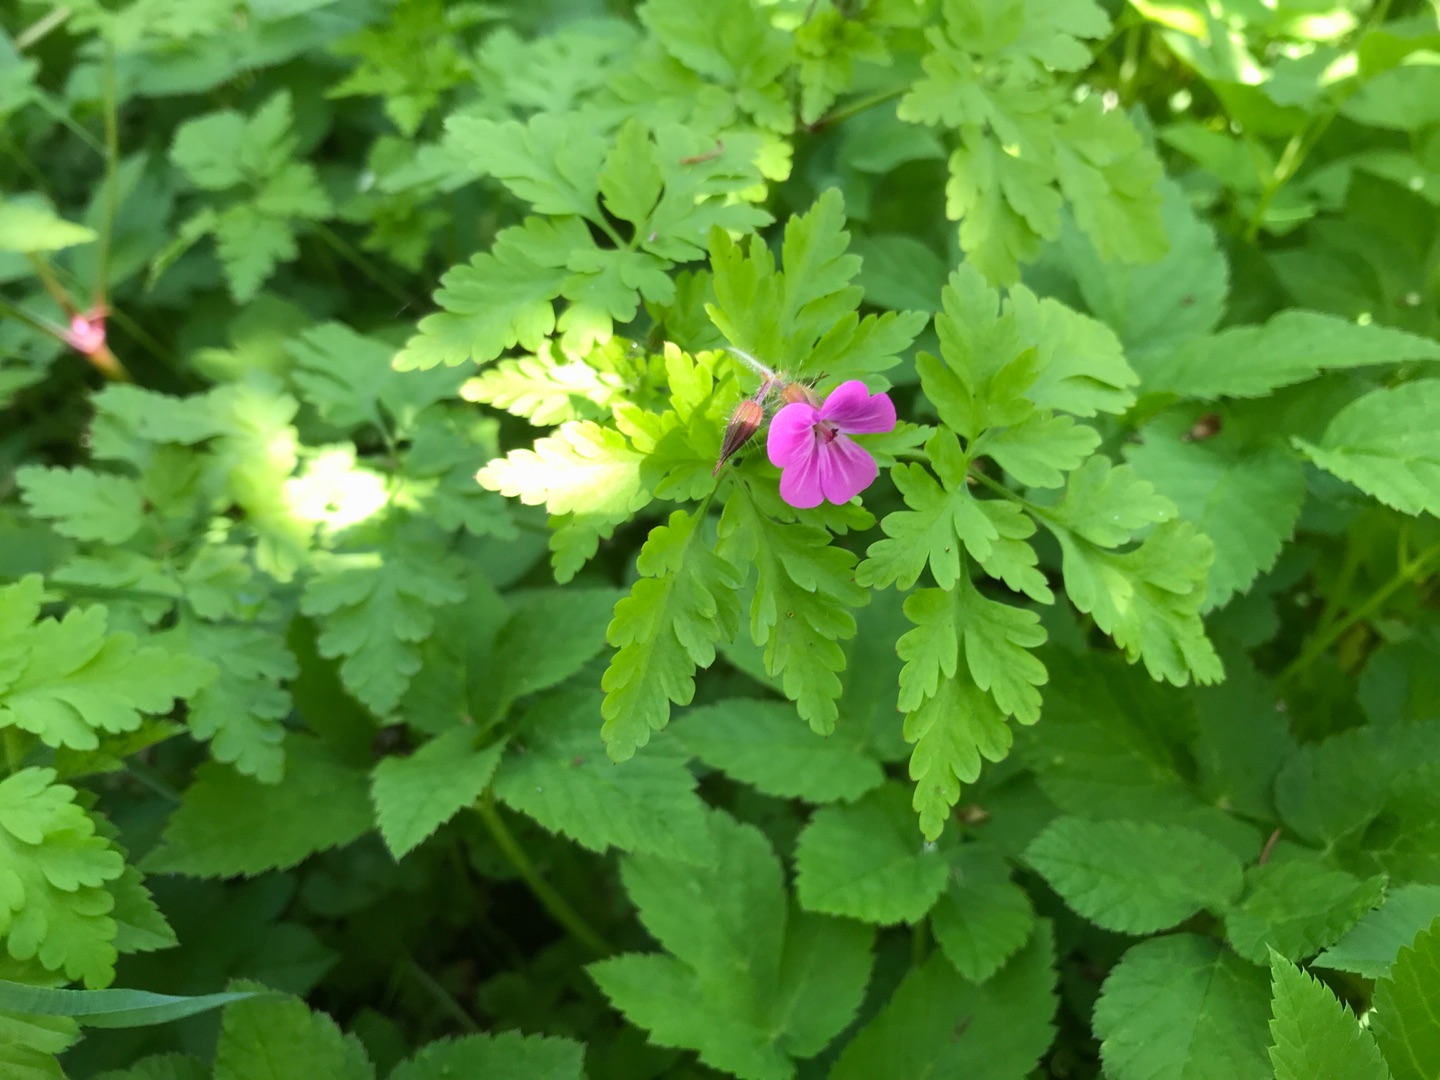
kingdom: Plantae
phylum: Tracheophyta
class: Magnoliopsida
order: Geraniales
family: Geraniaceae
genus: Geranium
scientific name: Geranium robertianum
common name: Stinkende storkenæb
